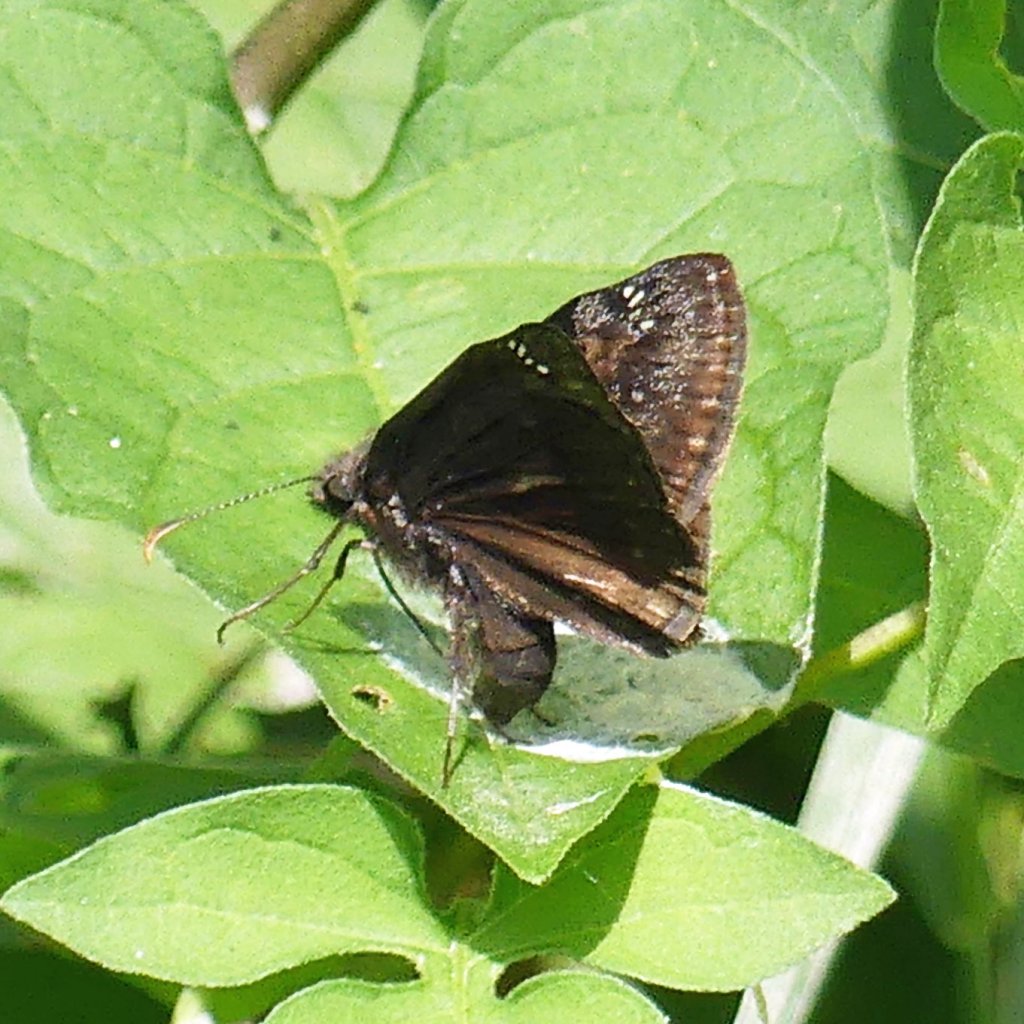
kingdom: Animalia
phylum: Arthropoda
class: Insecta
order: Lepidoptera
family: Hesperiidae
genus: Gesta
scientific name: Gesta
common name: Wild Indigo Duskywing
